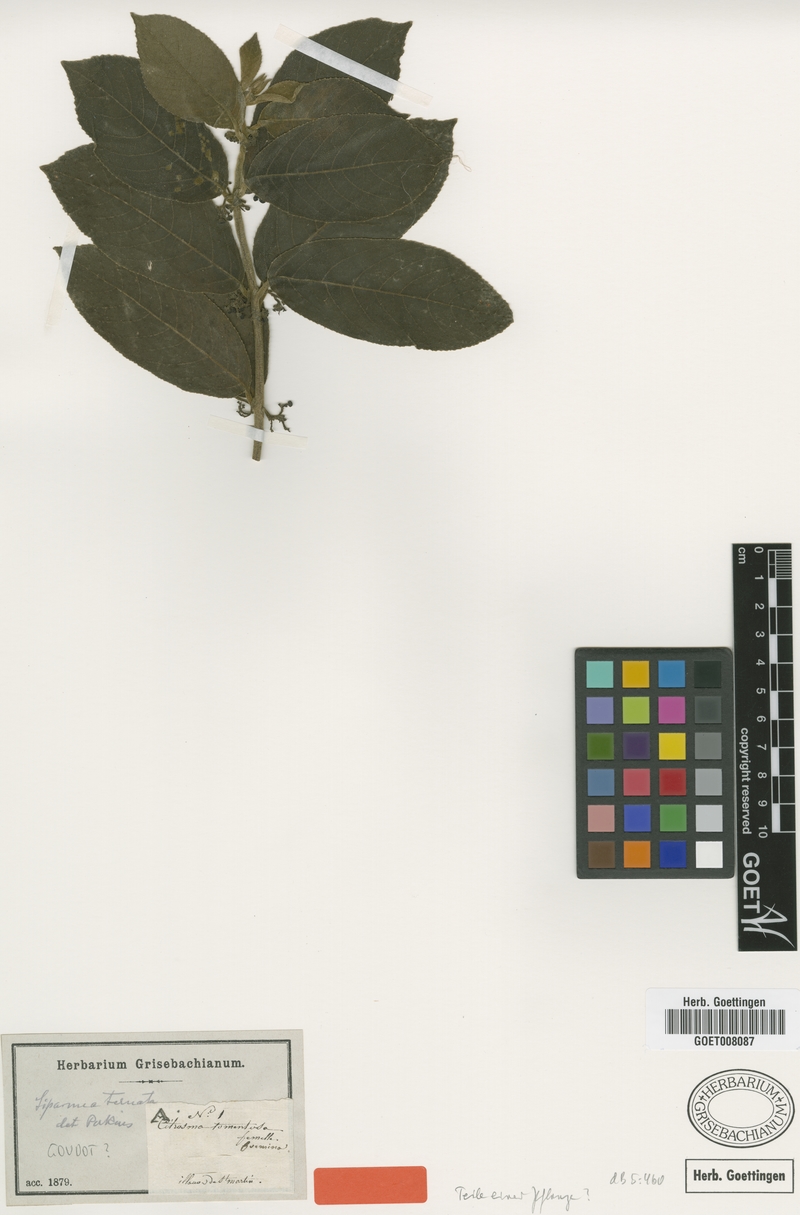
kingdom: Plantae
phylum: Tracheophyta
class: Magnoliopsida
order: Laurales
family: Siparunaceae
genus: Siparuna
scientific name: Siparuna thecaphora
